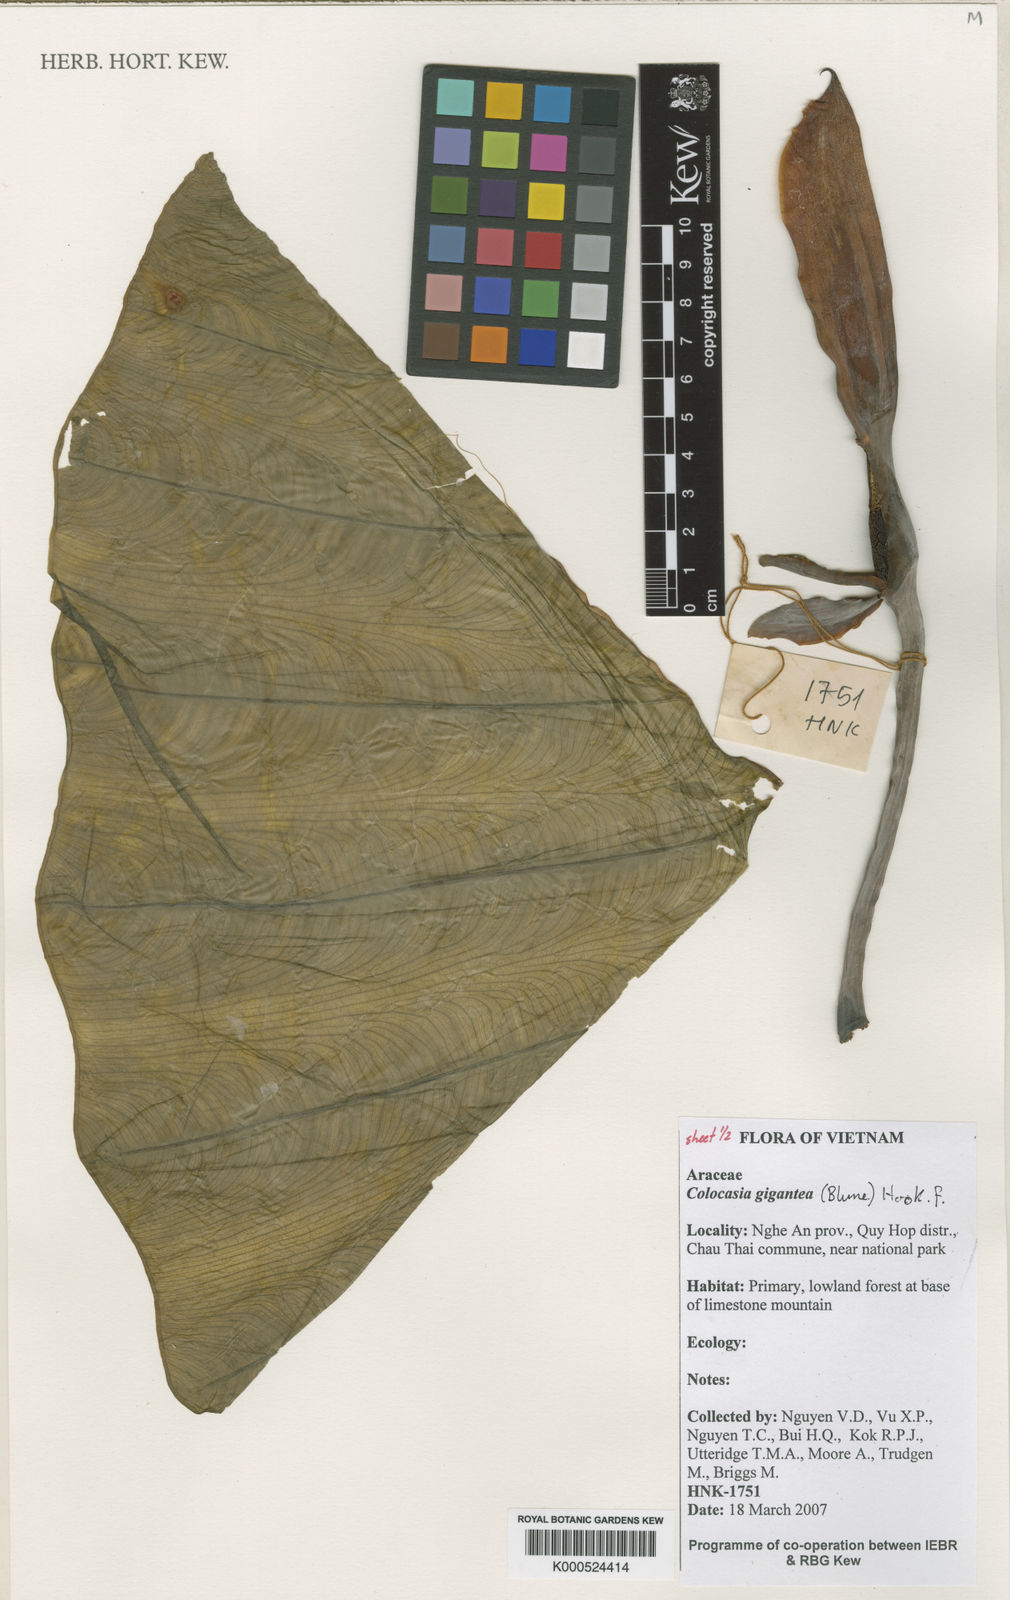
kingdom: Plantae
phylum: Tracheophyta
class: Liliopsida
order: Alismatales
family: Araceae
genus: Leucocasia
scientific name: Leucocasia gigantea
